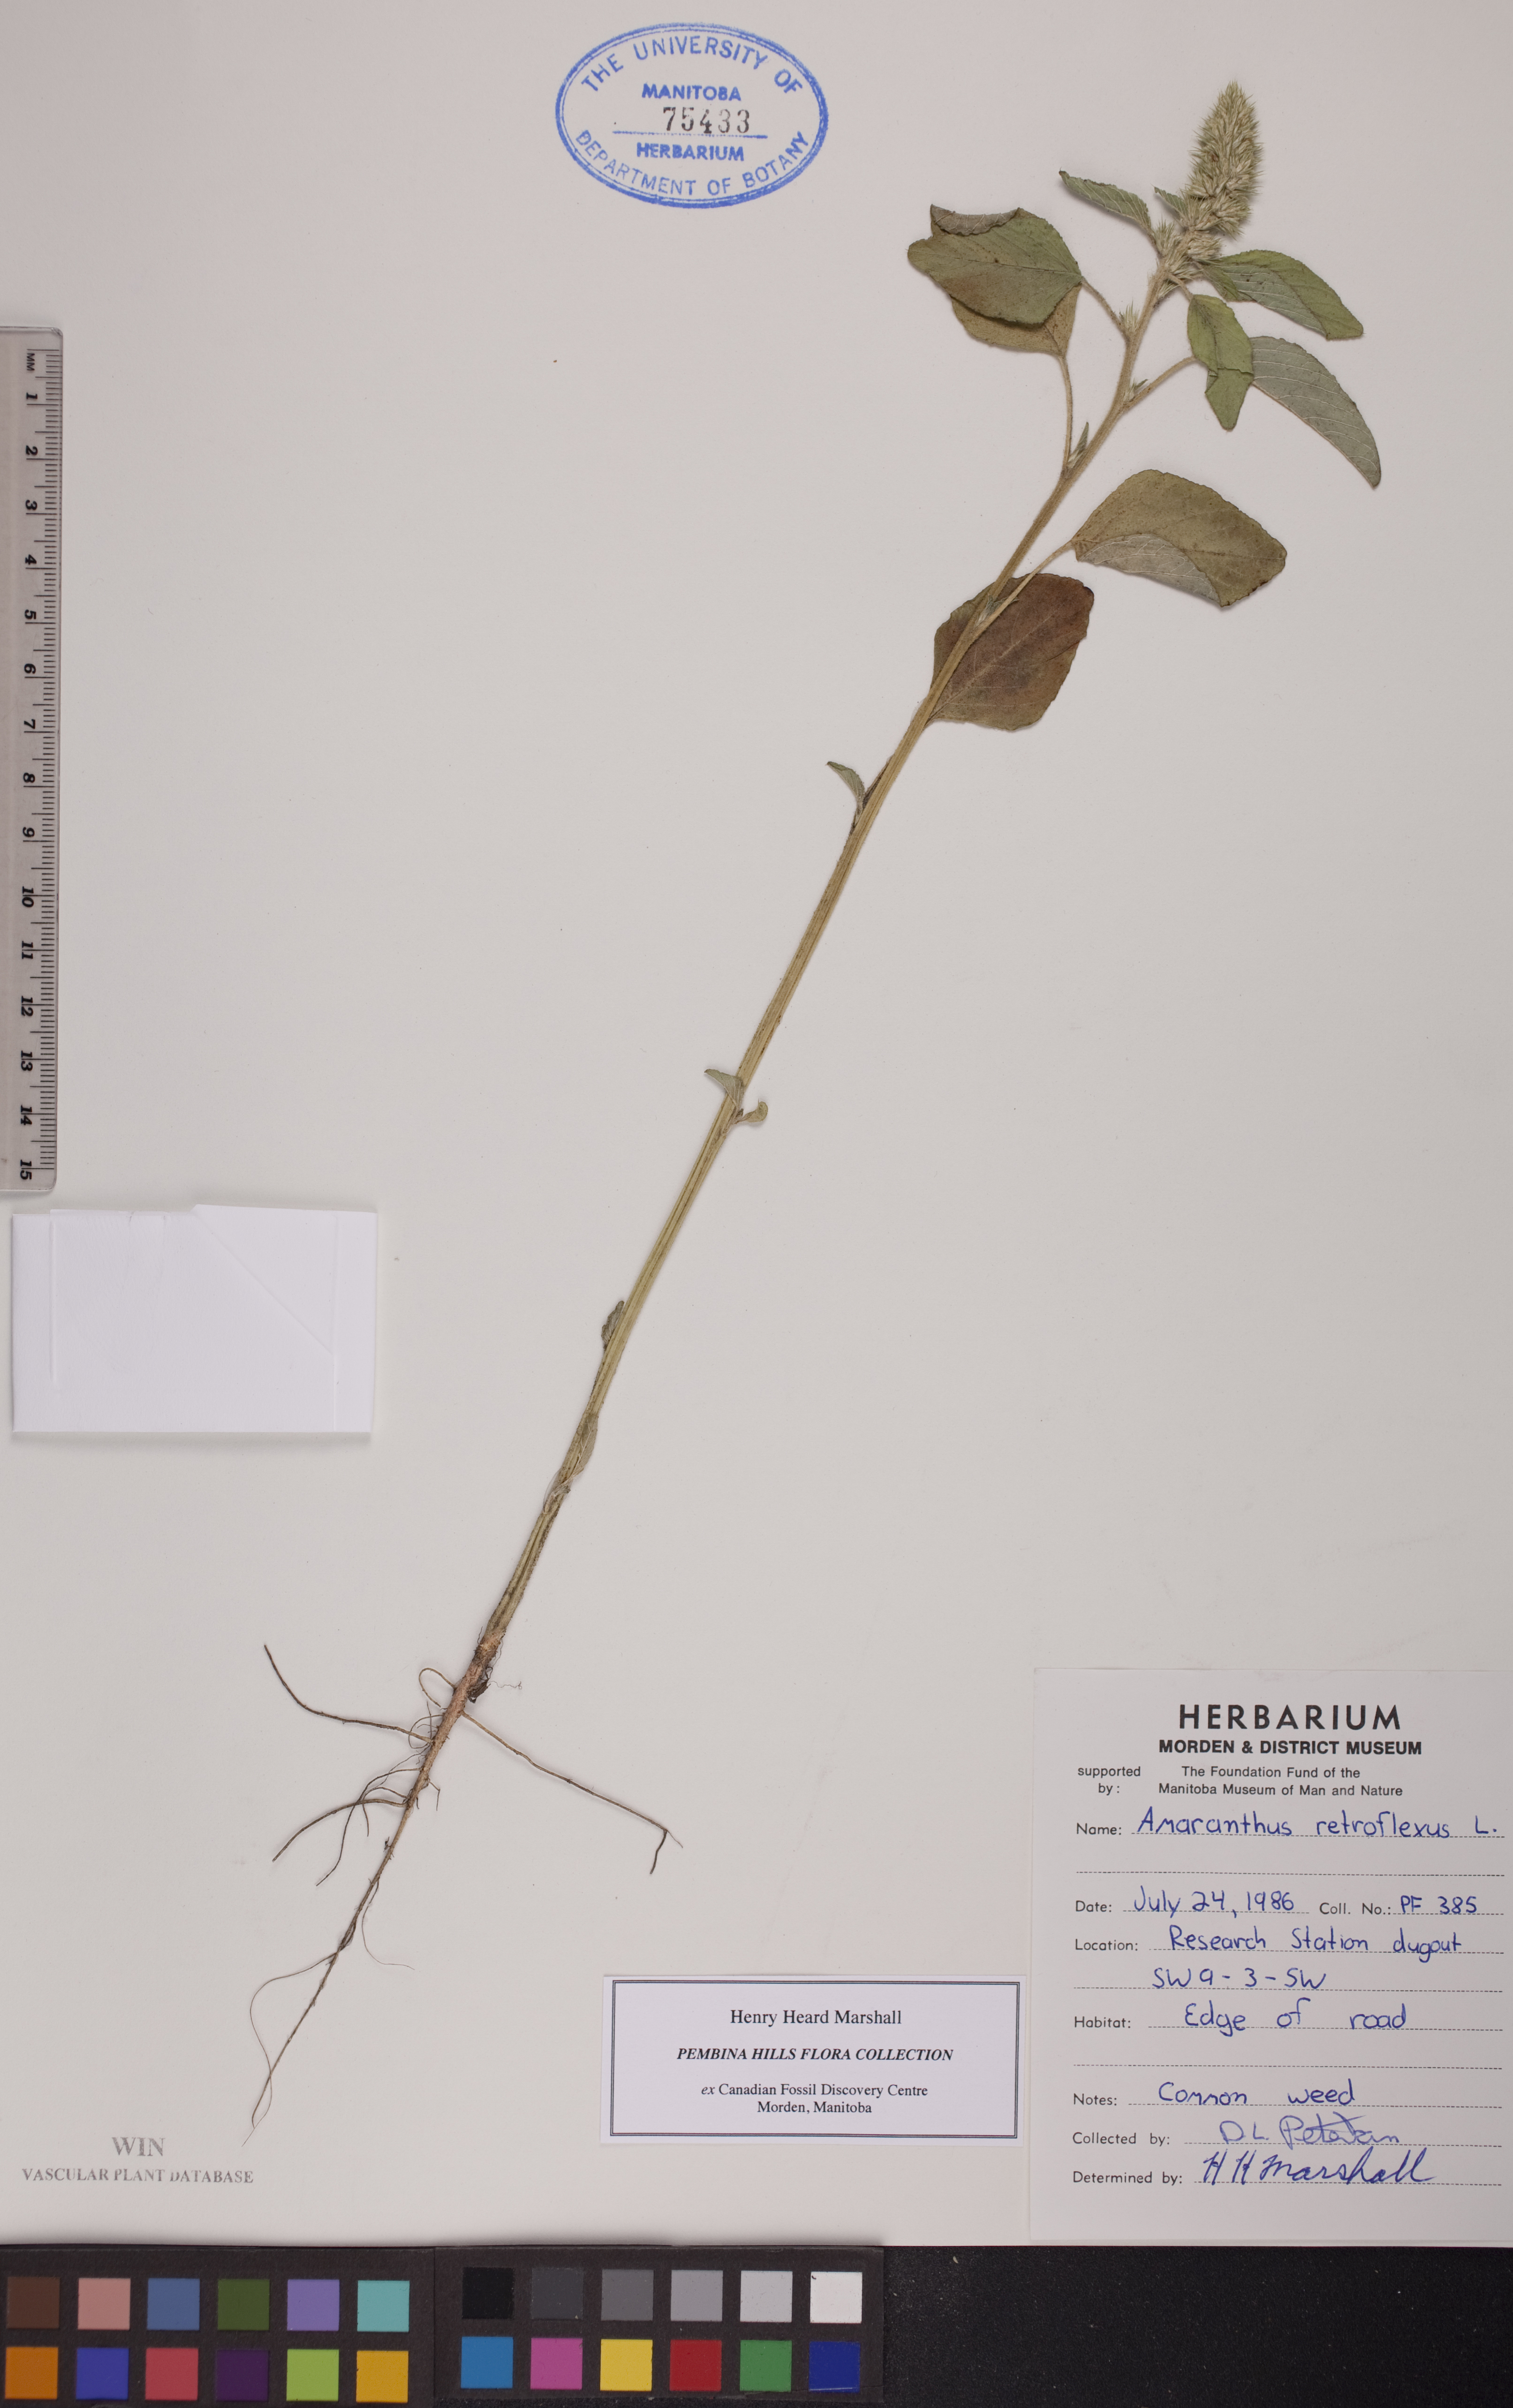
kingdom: Plantae
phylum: Tracheophyta
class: Magnoliopsida
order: Caryophyllales
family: Amaranthaceae
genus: Amaranthus
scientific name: Amaranthus retroflexus
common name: Redroot amaranth
